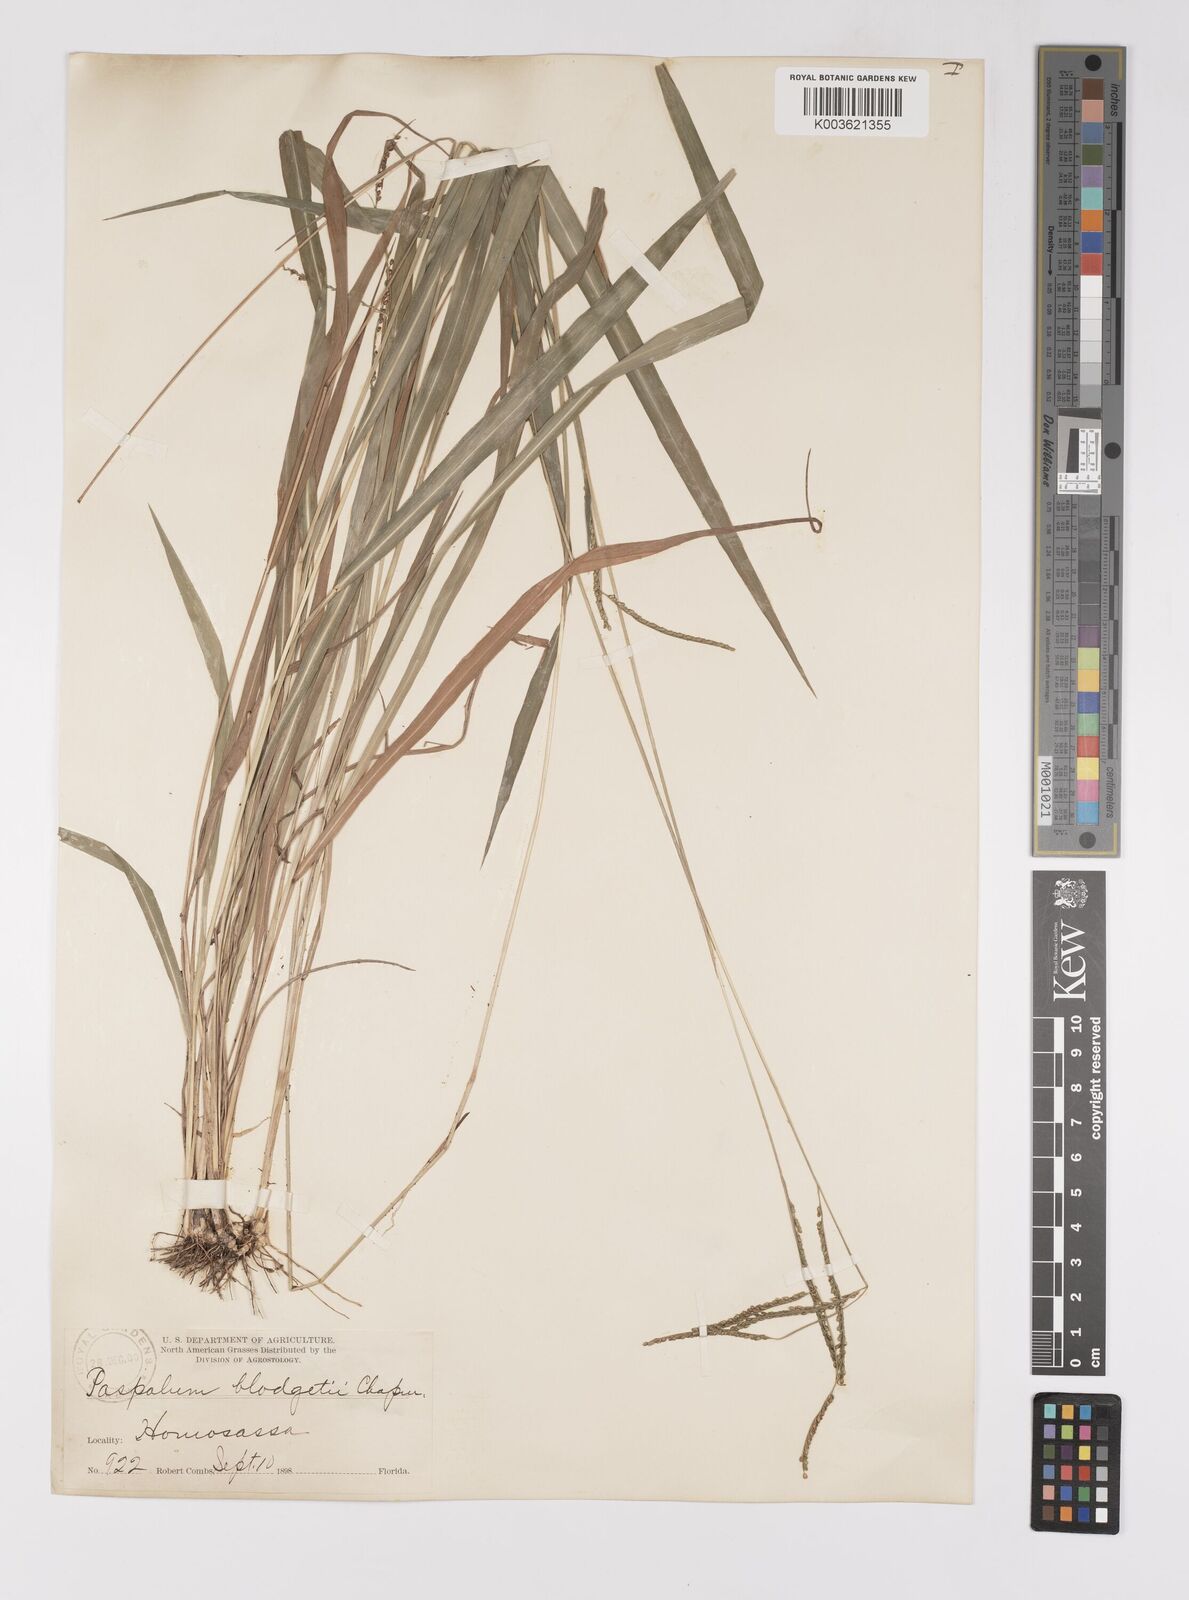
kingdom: Plantae
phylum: Tracheophyta
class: Liliopsida
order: Poales
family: Poaceae
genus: Paspalum
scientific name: Paspalum caespitosum
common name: Blue crowngrass
